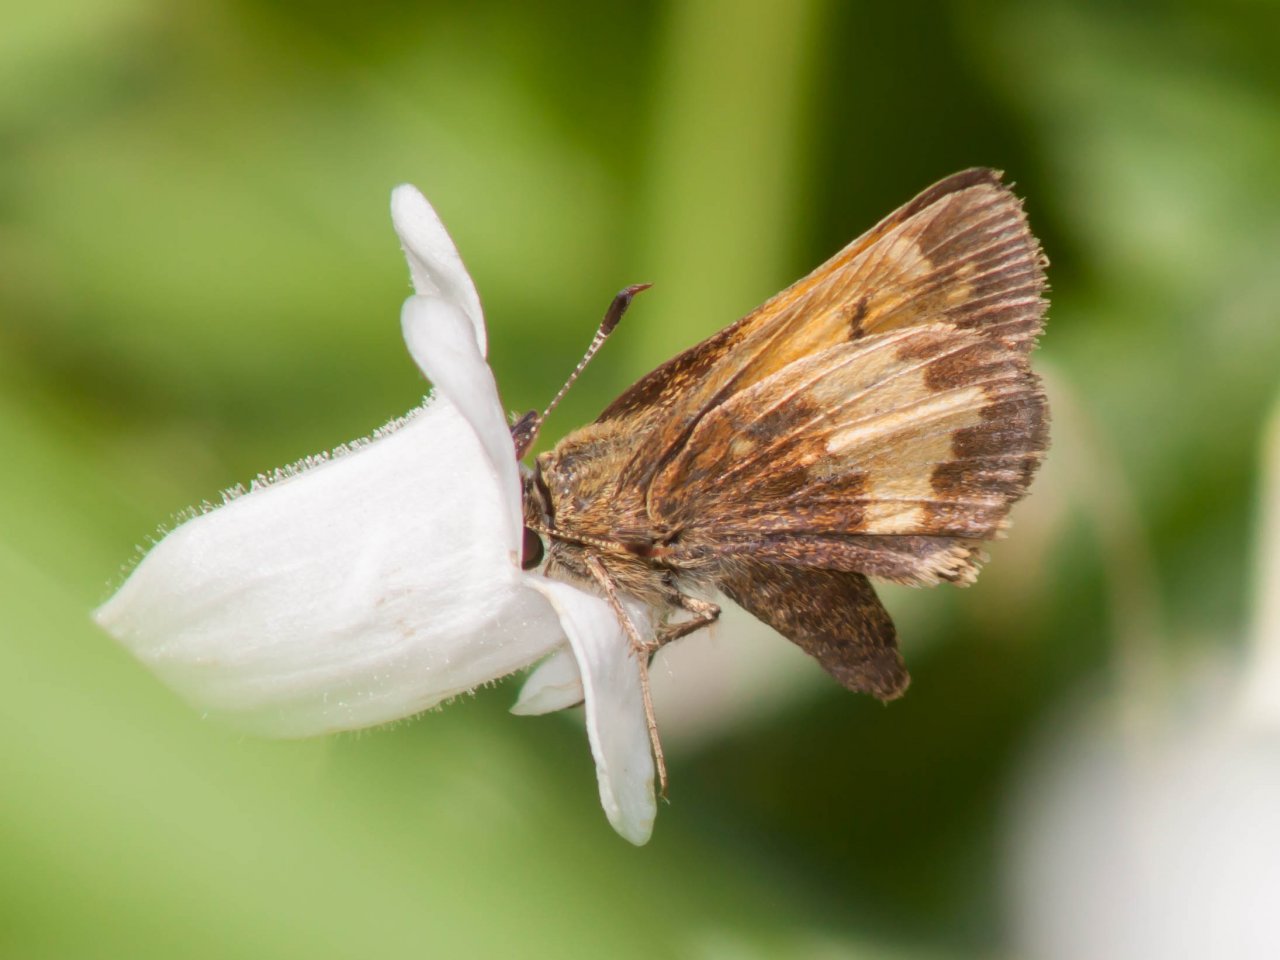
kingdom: Animalia
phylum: Arthropoda
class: Insecta
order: Lepidoptera
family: Hesperiidae
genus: Lon
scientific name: Lon hobomok
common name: Hobomok Skipper
